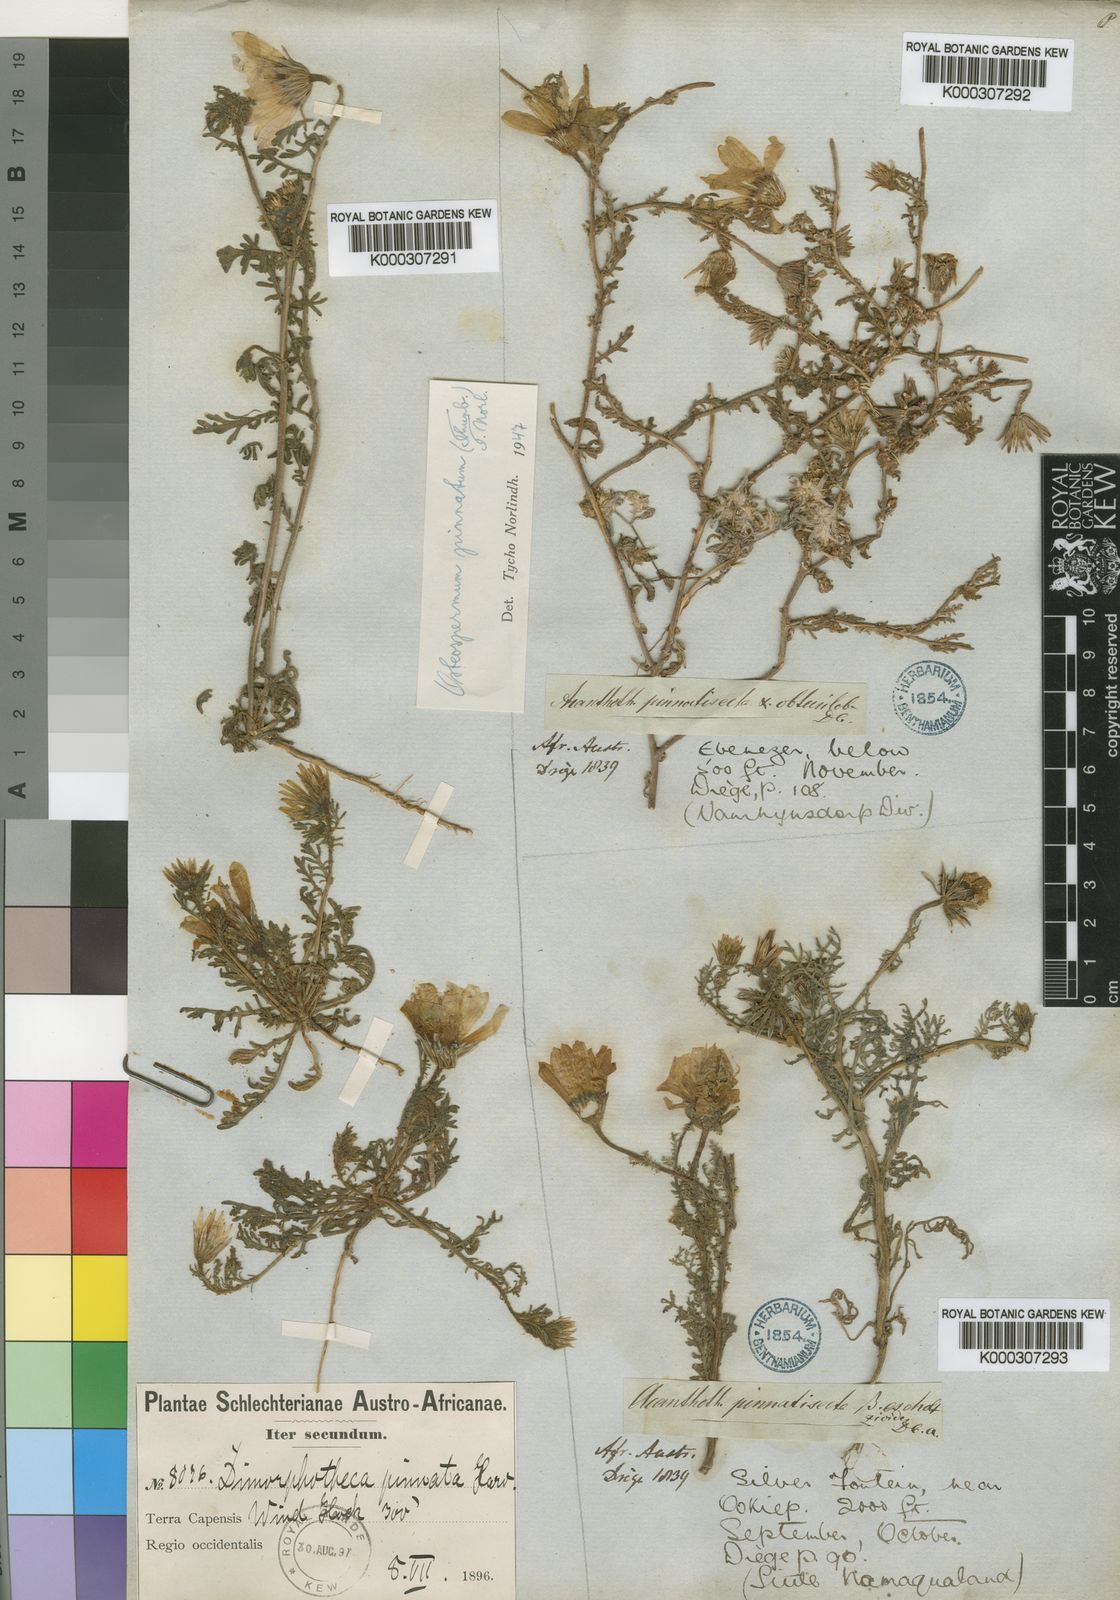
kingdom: Plantae
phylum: Tracheophyta
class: Magnoliopsida
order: Asterales
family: Asteraceae
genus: Dimorphotheca
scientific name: Dimorphotheca pinnata
